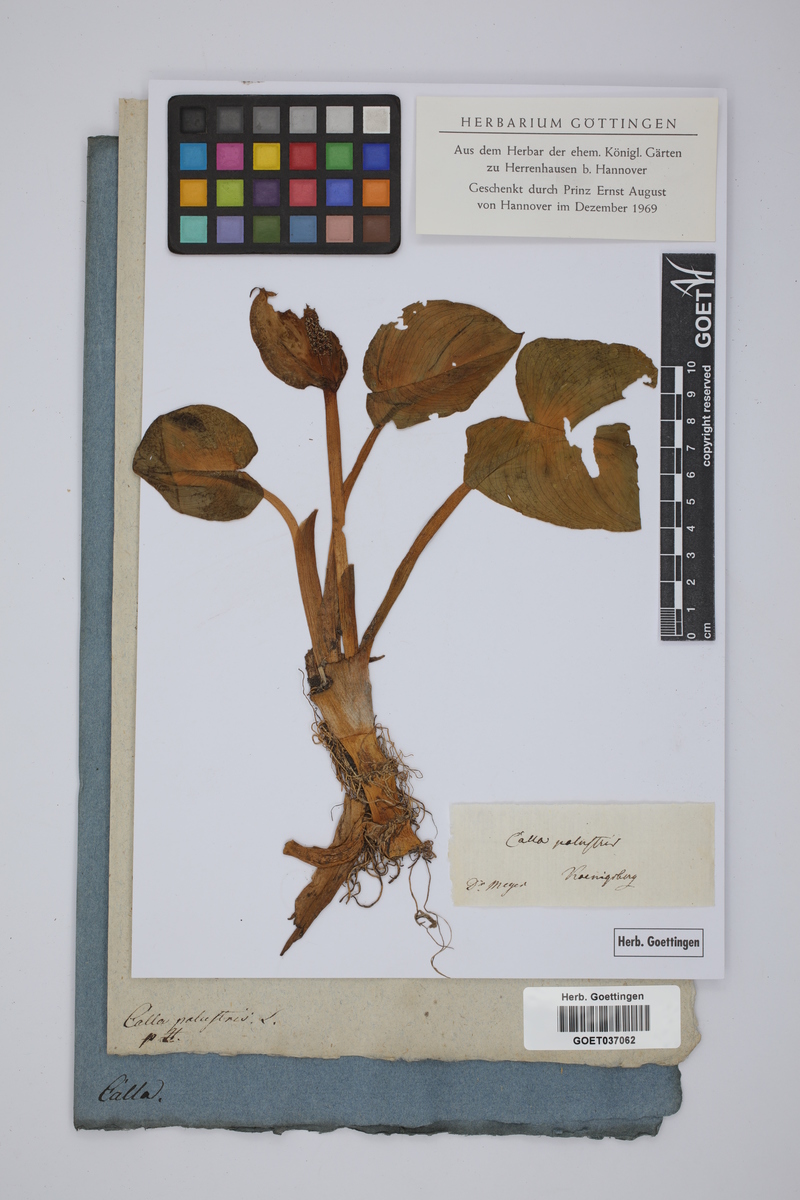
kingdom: Plantae
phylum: Tracheophyta
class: Liliopsida
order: Alismatales
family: Araceae
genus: Calla
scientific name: Calla palustris
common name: Bog arum
